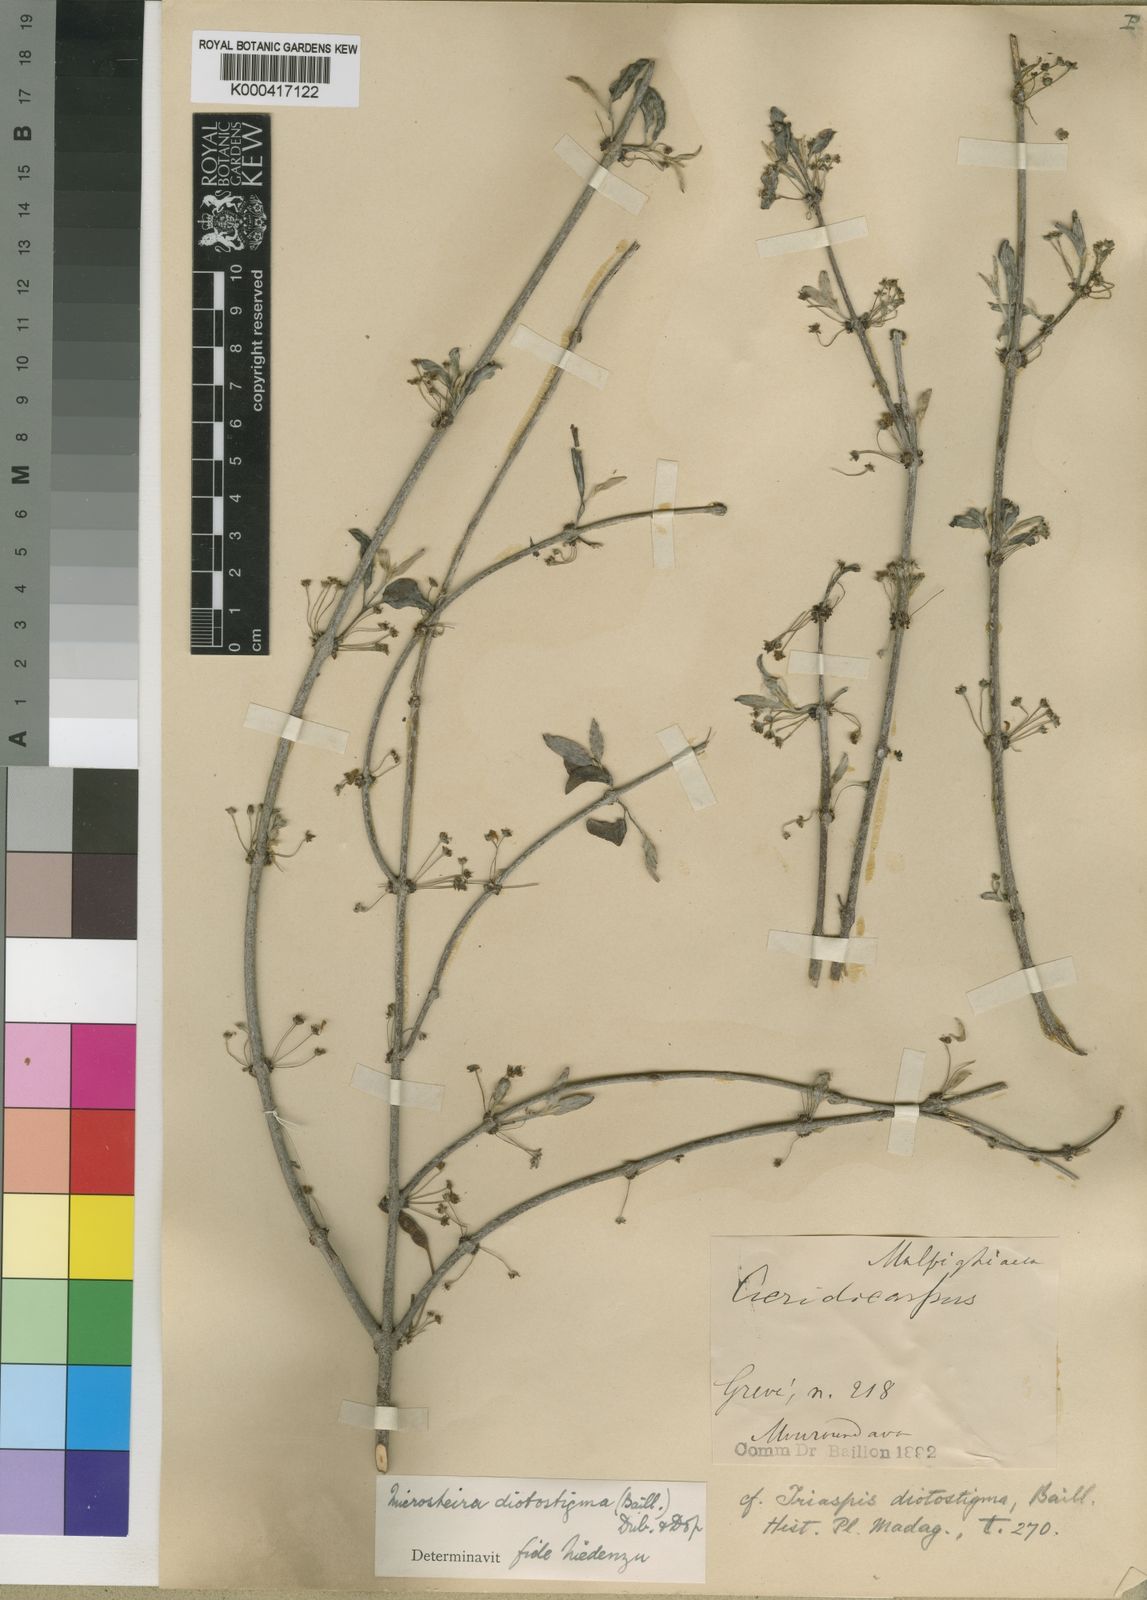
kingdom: Plantae
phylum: Tracheophyta
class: Magnoliopsida
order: Malpighiales
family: Malpighiaceae
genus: Microsteira
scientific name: Microsteira diotostigma
